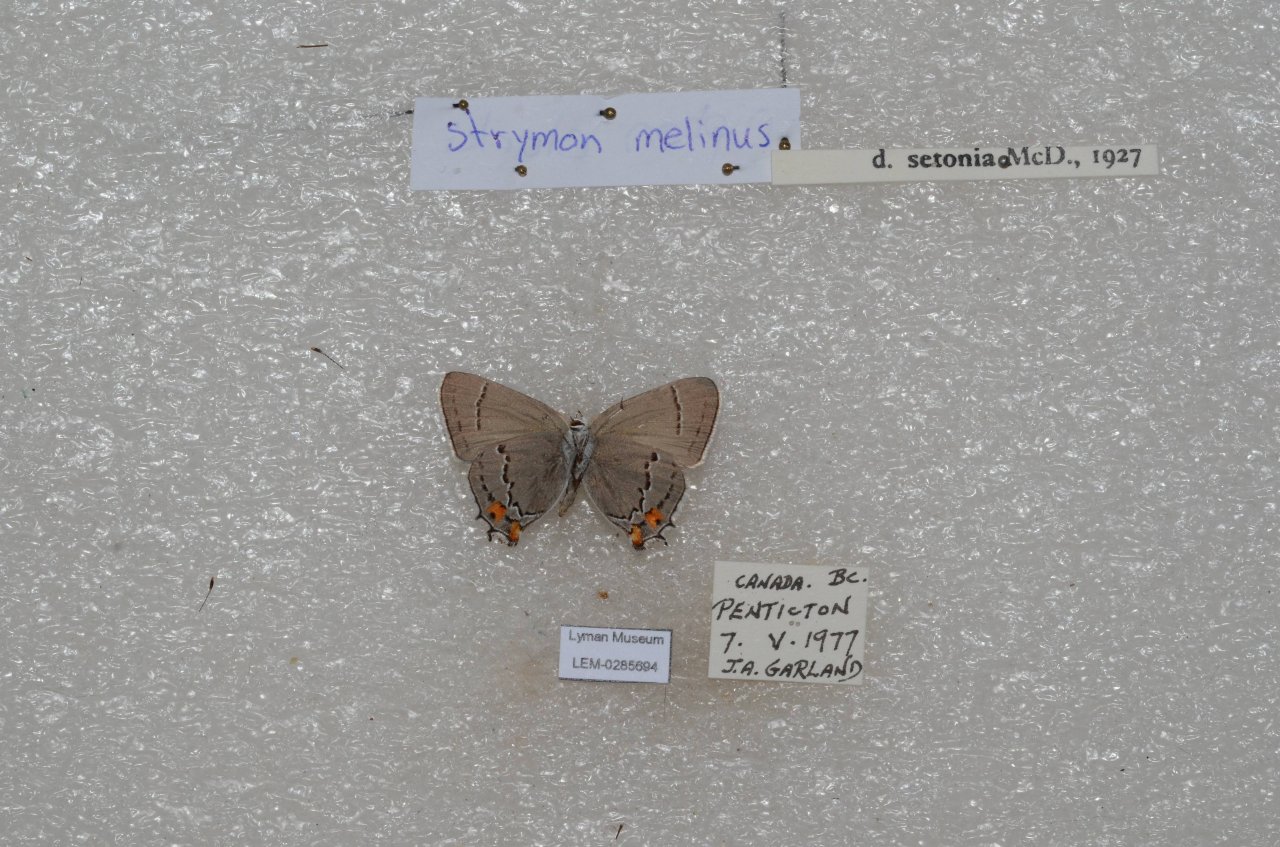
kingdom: Animalia
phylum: Arthropoda
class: Insecta
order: Lepidoptera
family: Lycaenidae
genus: Strymon
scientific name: Strymon melinus
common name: Gray Hairstreak
